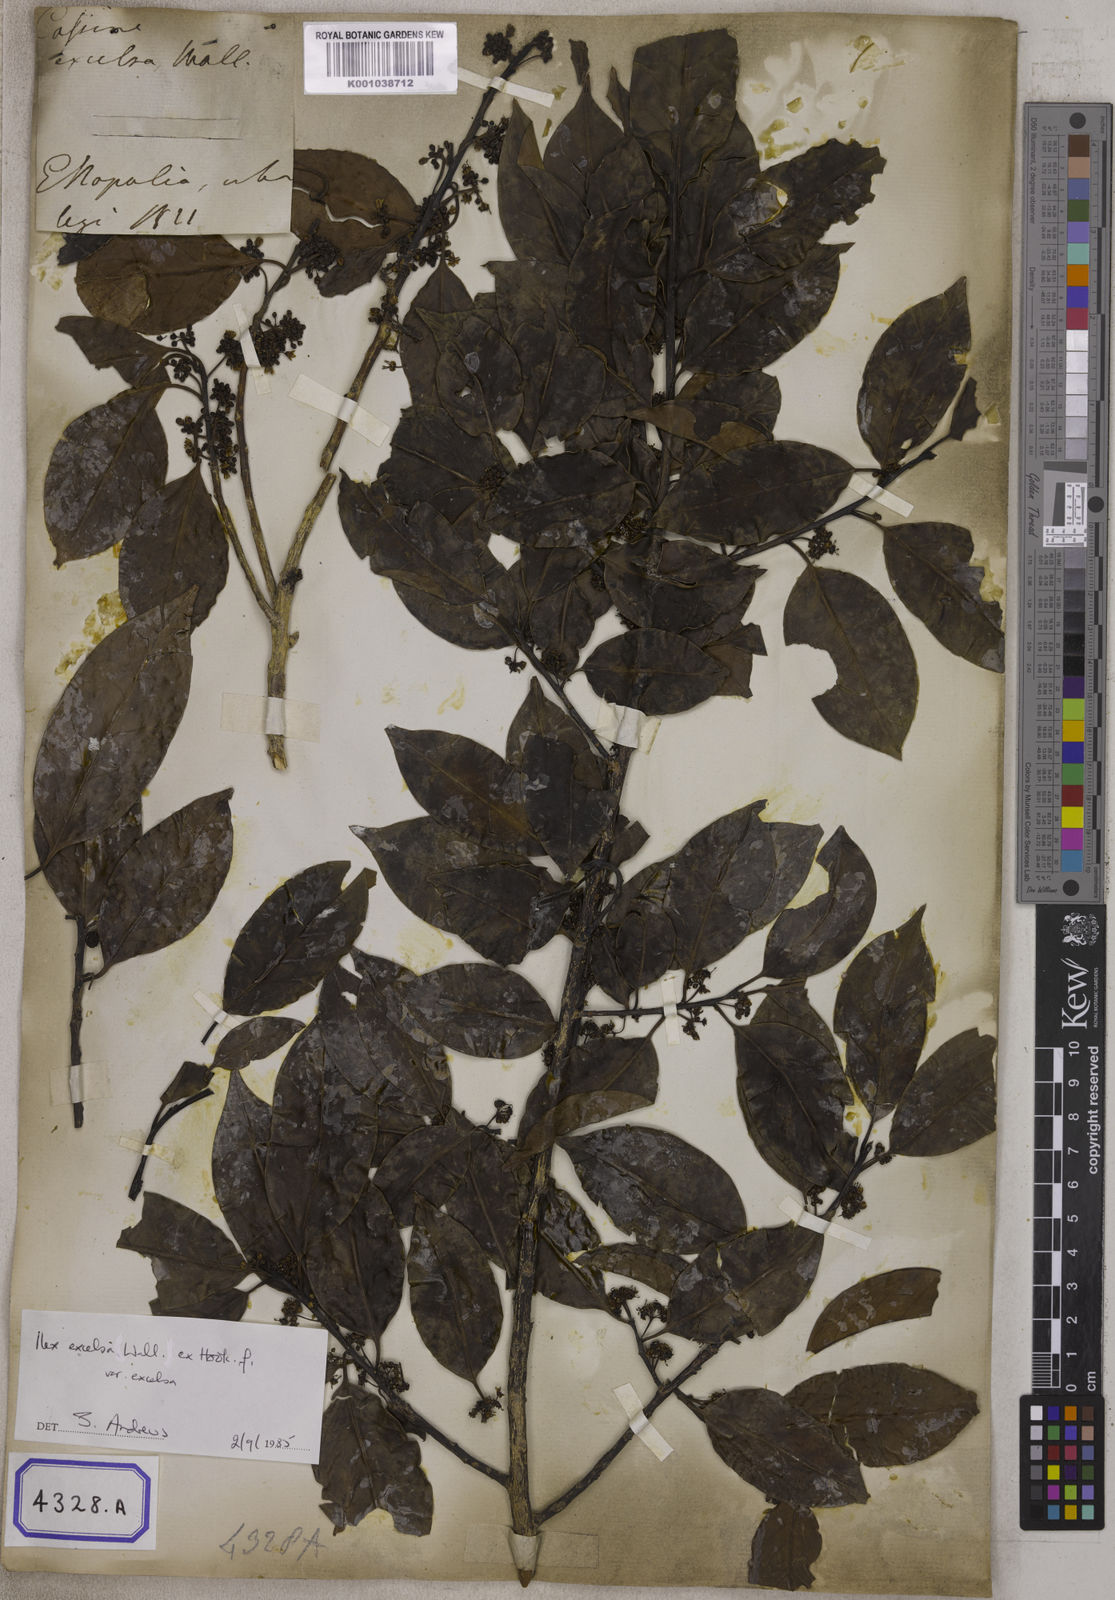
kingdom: Plantae
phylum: Tracheophyta
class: Magnoliopsida
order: Aquifoliales
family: Aquifoliaceae
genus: Ilex
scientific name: Ilex excelsa
